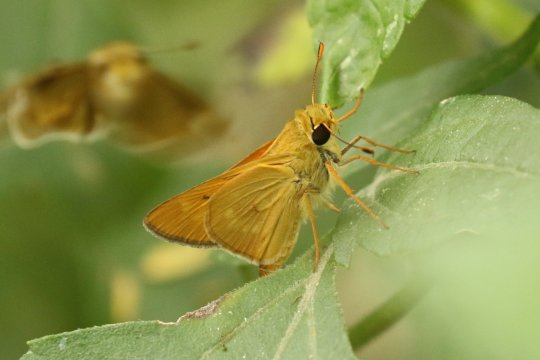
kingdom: Animalia
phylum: Arthropoda
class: Insecta
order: Lepidoptera
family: Hesperiidae
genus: Mellana
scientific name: Mellana eulogius
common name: Common Mellana
